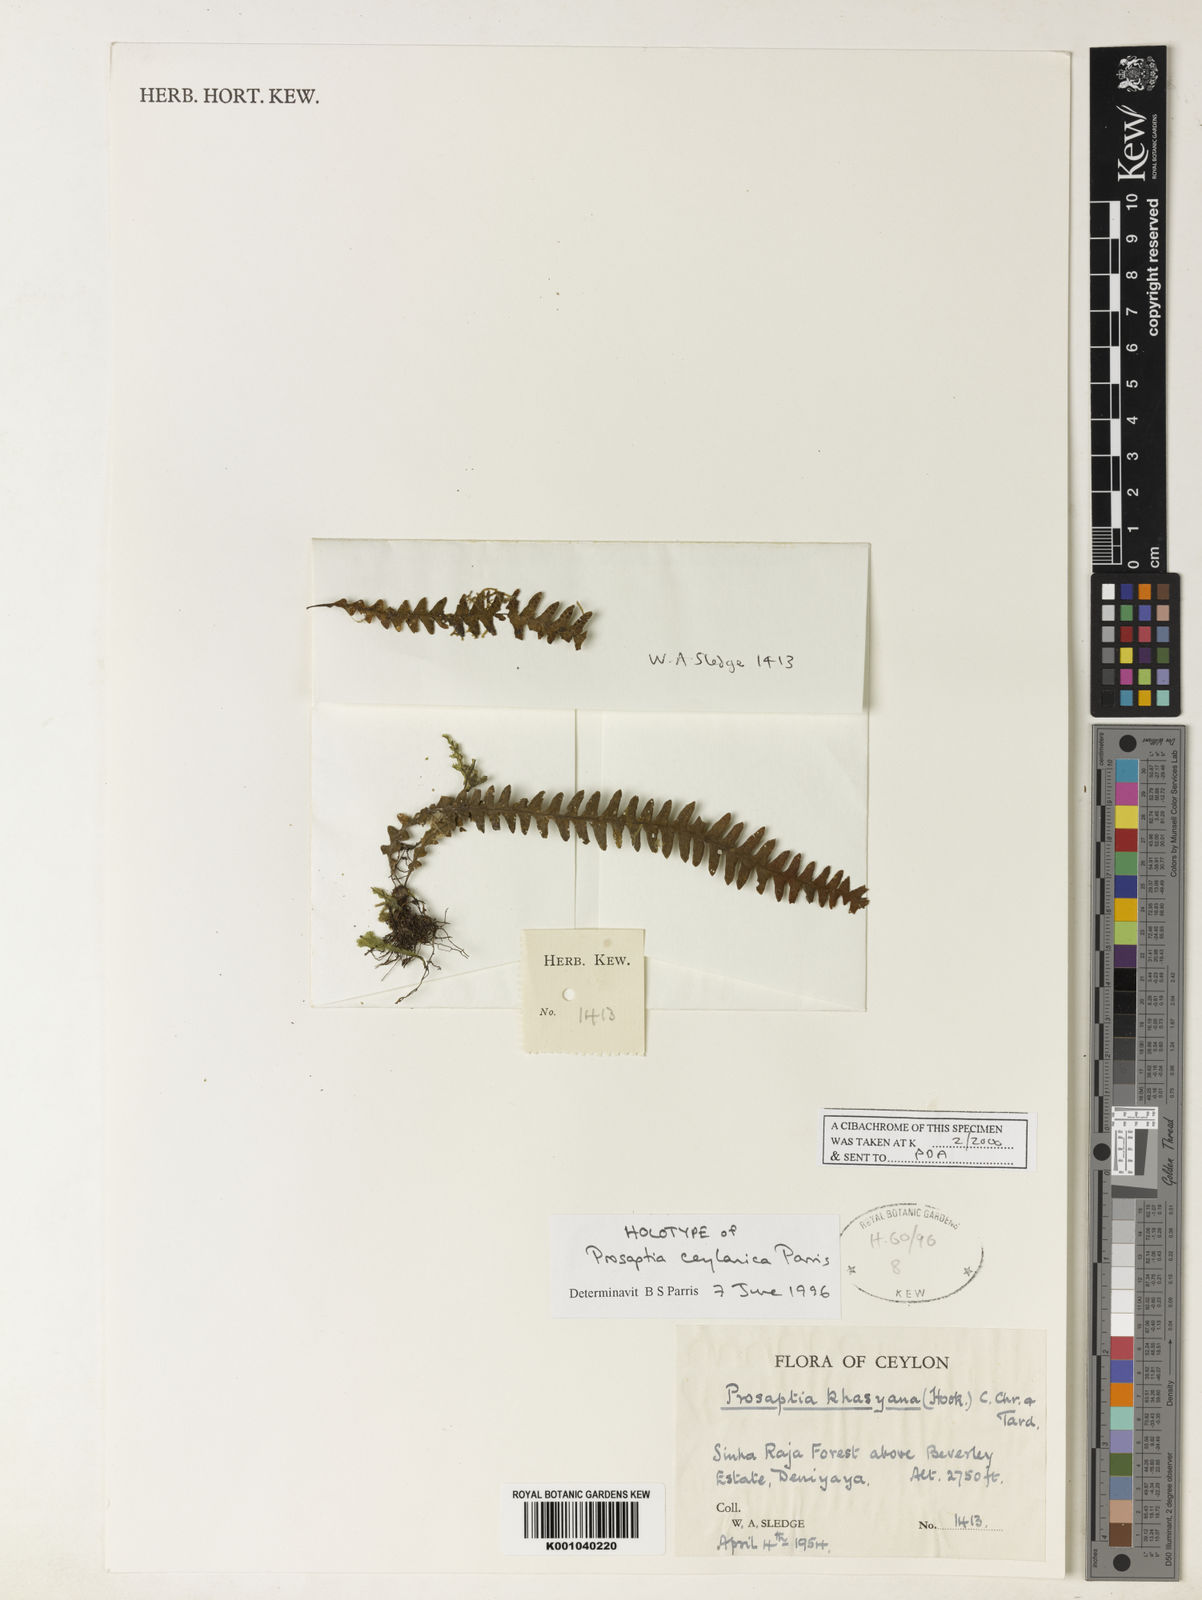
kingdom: Plantae
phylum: Tracheophyta
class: Polypodiopsida
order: Polypodiales
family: Polypodiaceae
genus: Prosaptia
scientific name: Prosaptia ceylanica
